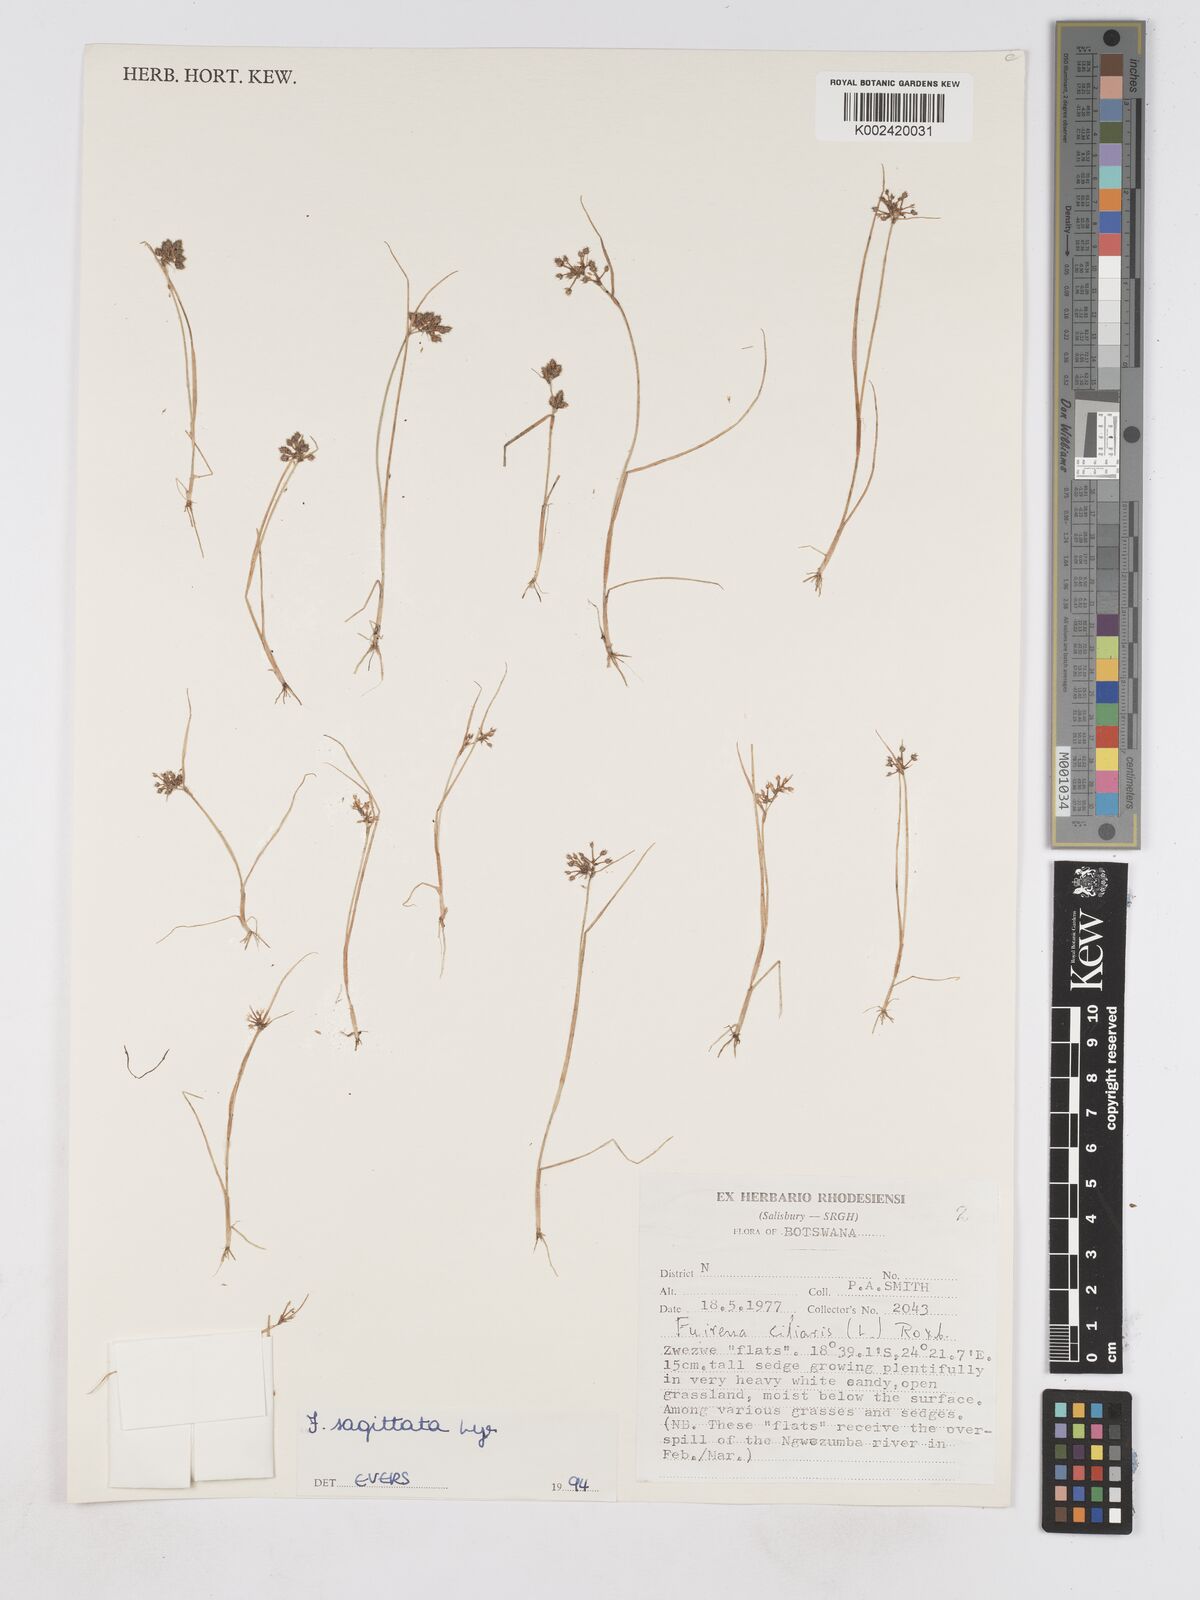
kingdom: Plantae
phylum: Tracheophyta
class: Liliopsida
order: Poales
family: Cyperaceae
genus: Fuirena
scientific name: Fuirena sagittata
